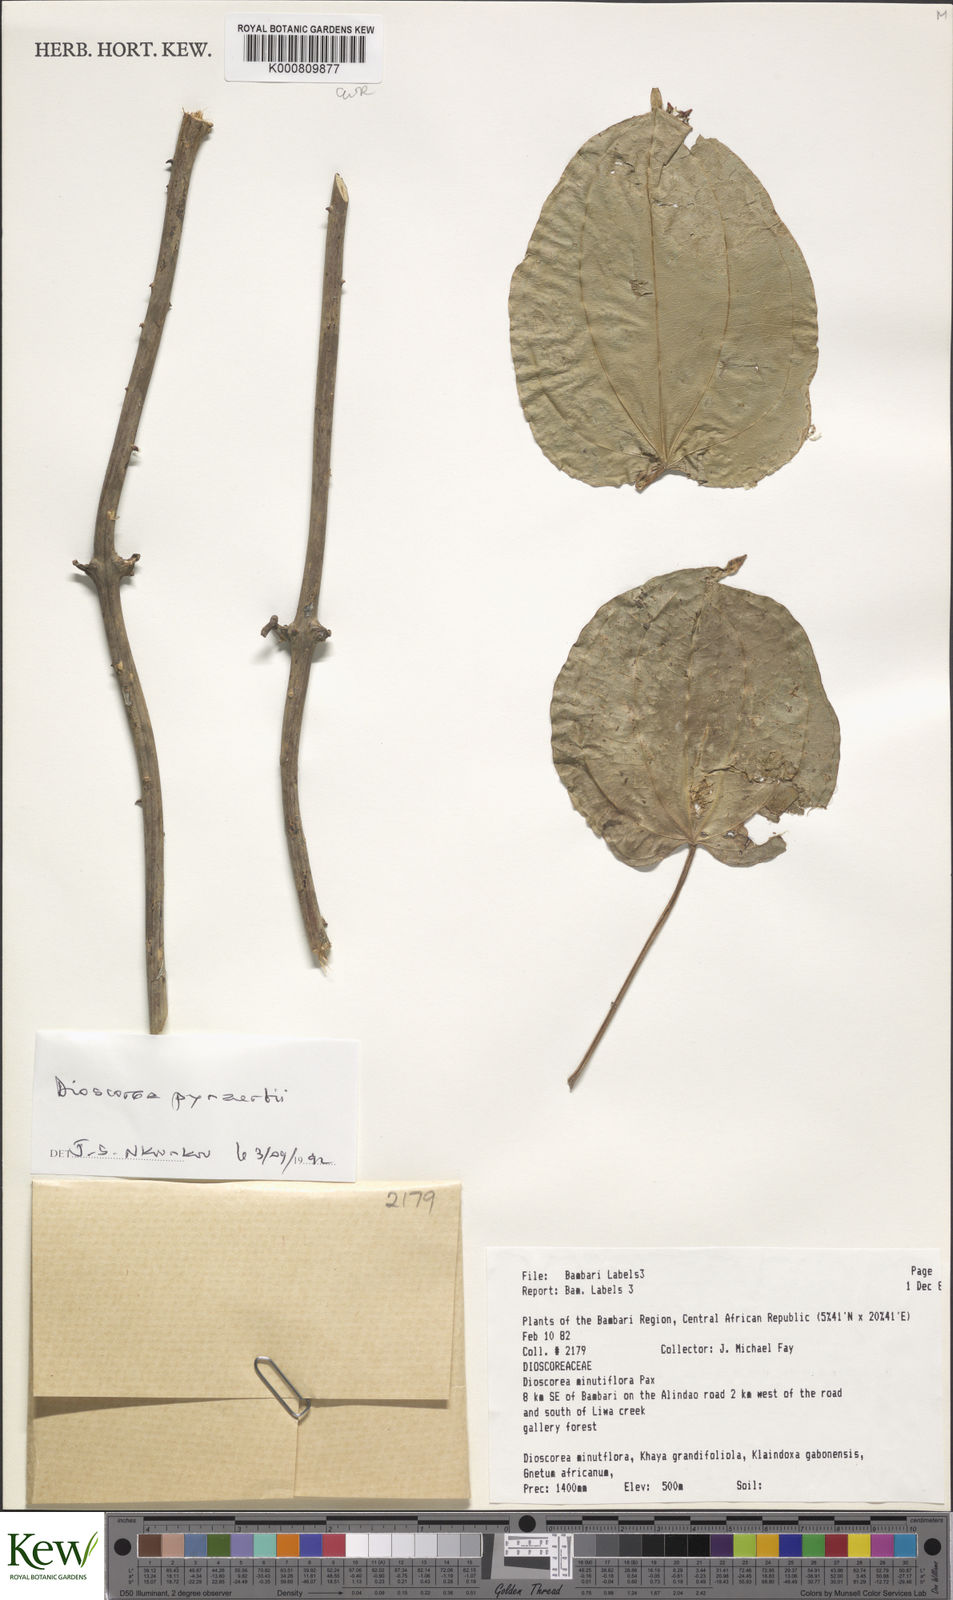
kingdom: Plantae
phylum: Tracheophyta
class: Liliopsida
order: Dioscoreales
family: Dioscoreaceae
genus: Dioscorea
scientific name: Dioscorea minutiflora
